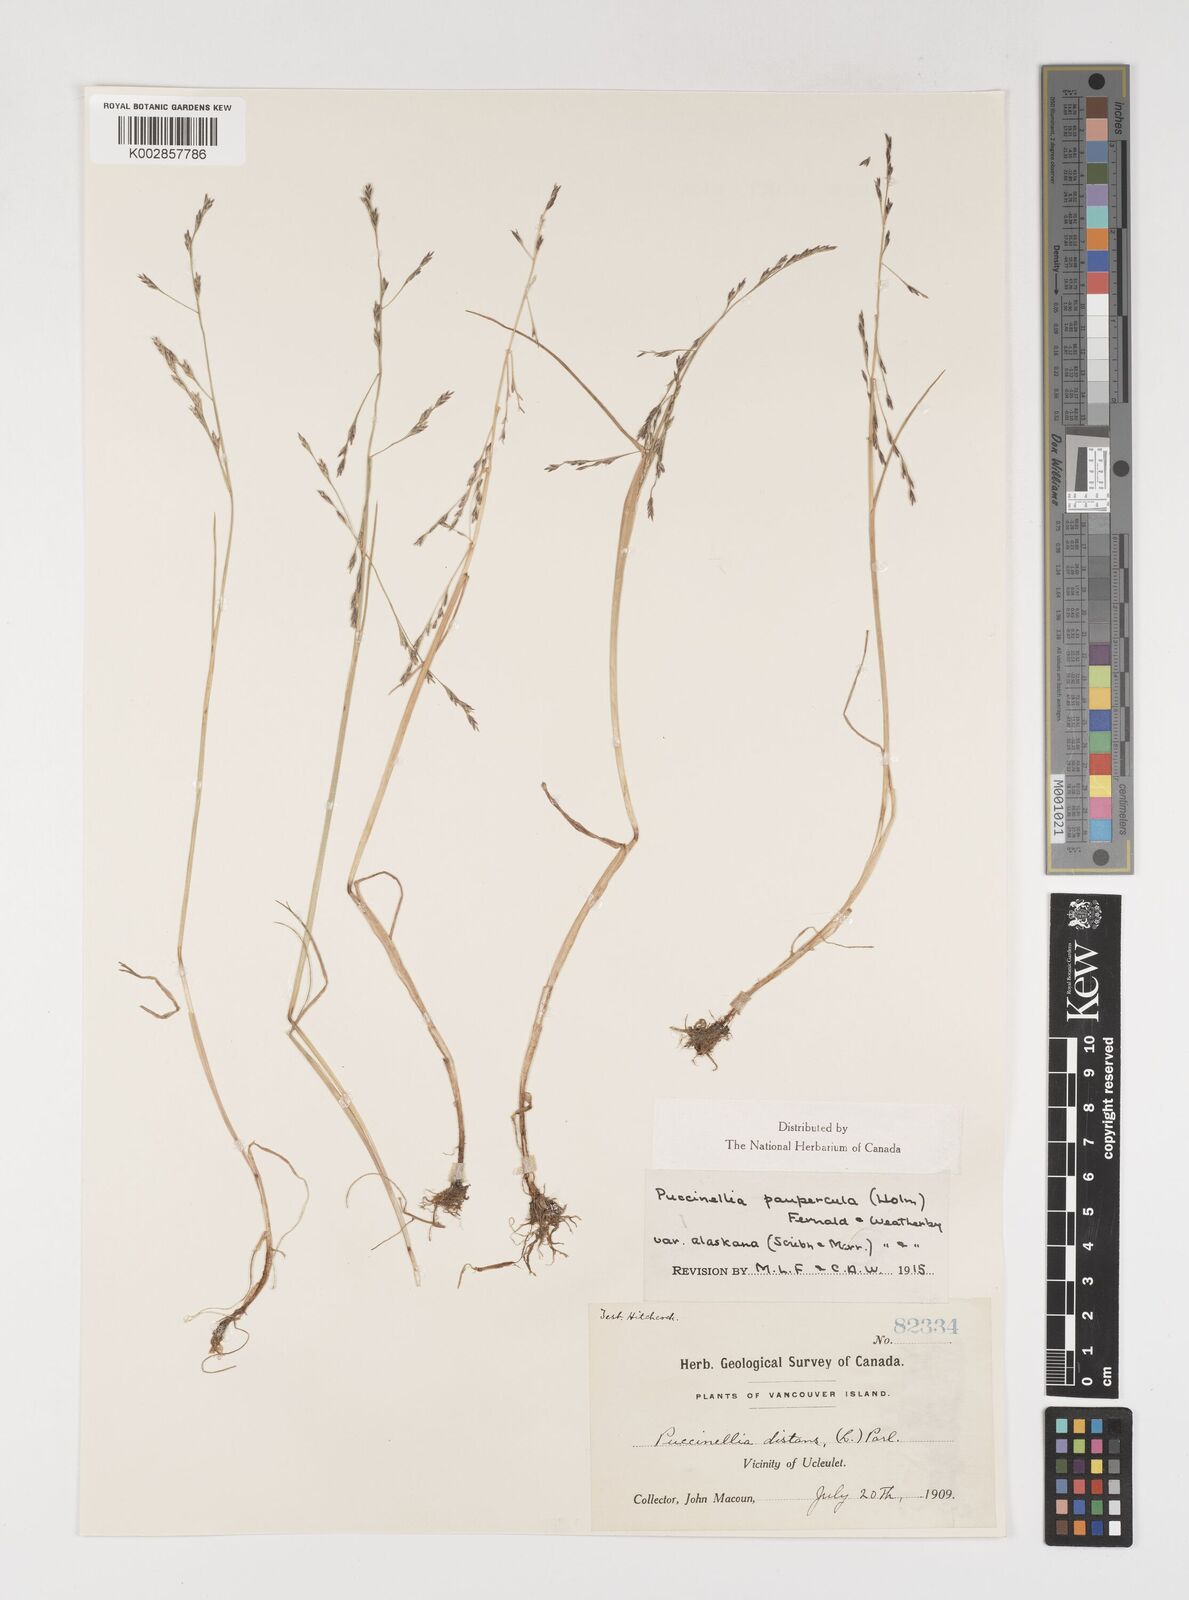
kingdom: Plantae
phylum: Tracheophyta
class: Liliopsida
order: Poales
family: Poaceae
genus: Puccinellia
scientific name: Puccinellia pumila
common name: Dwarf alkaligrass
